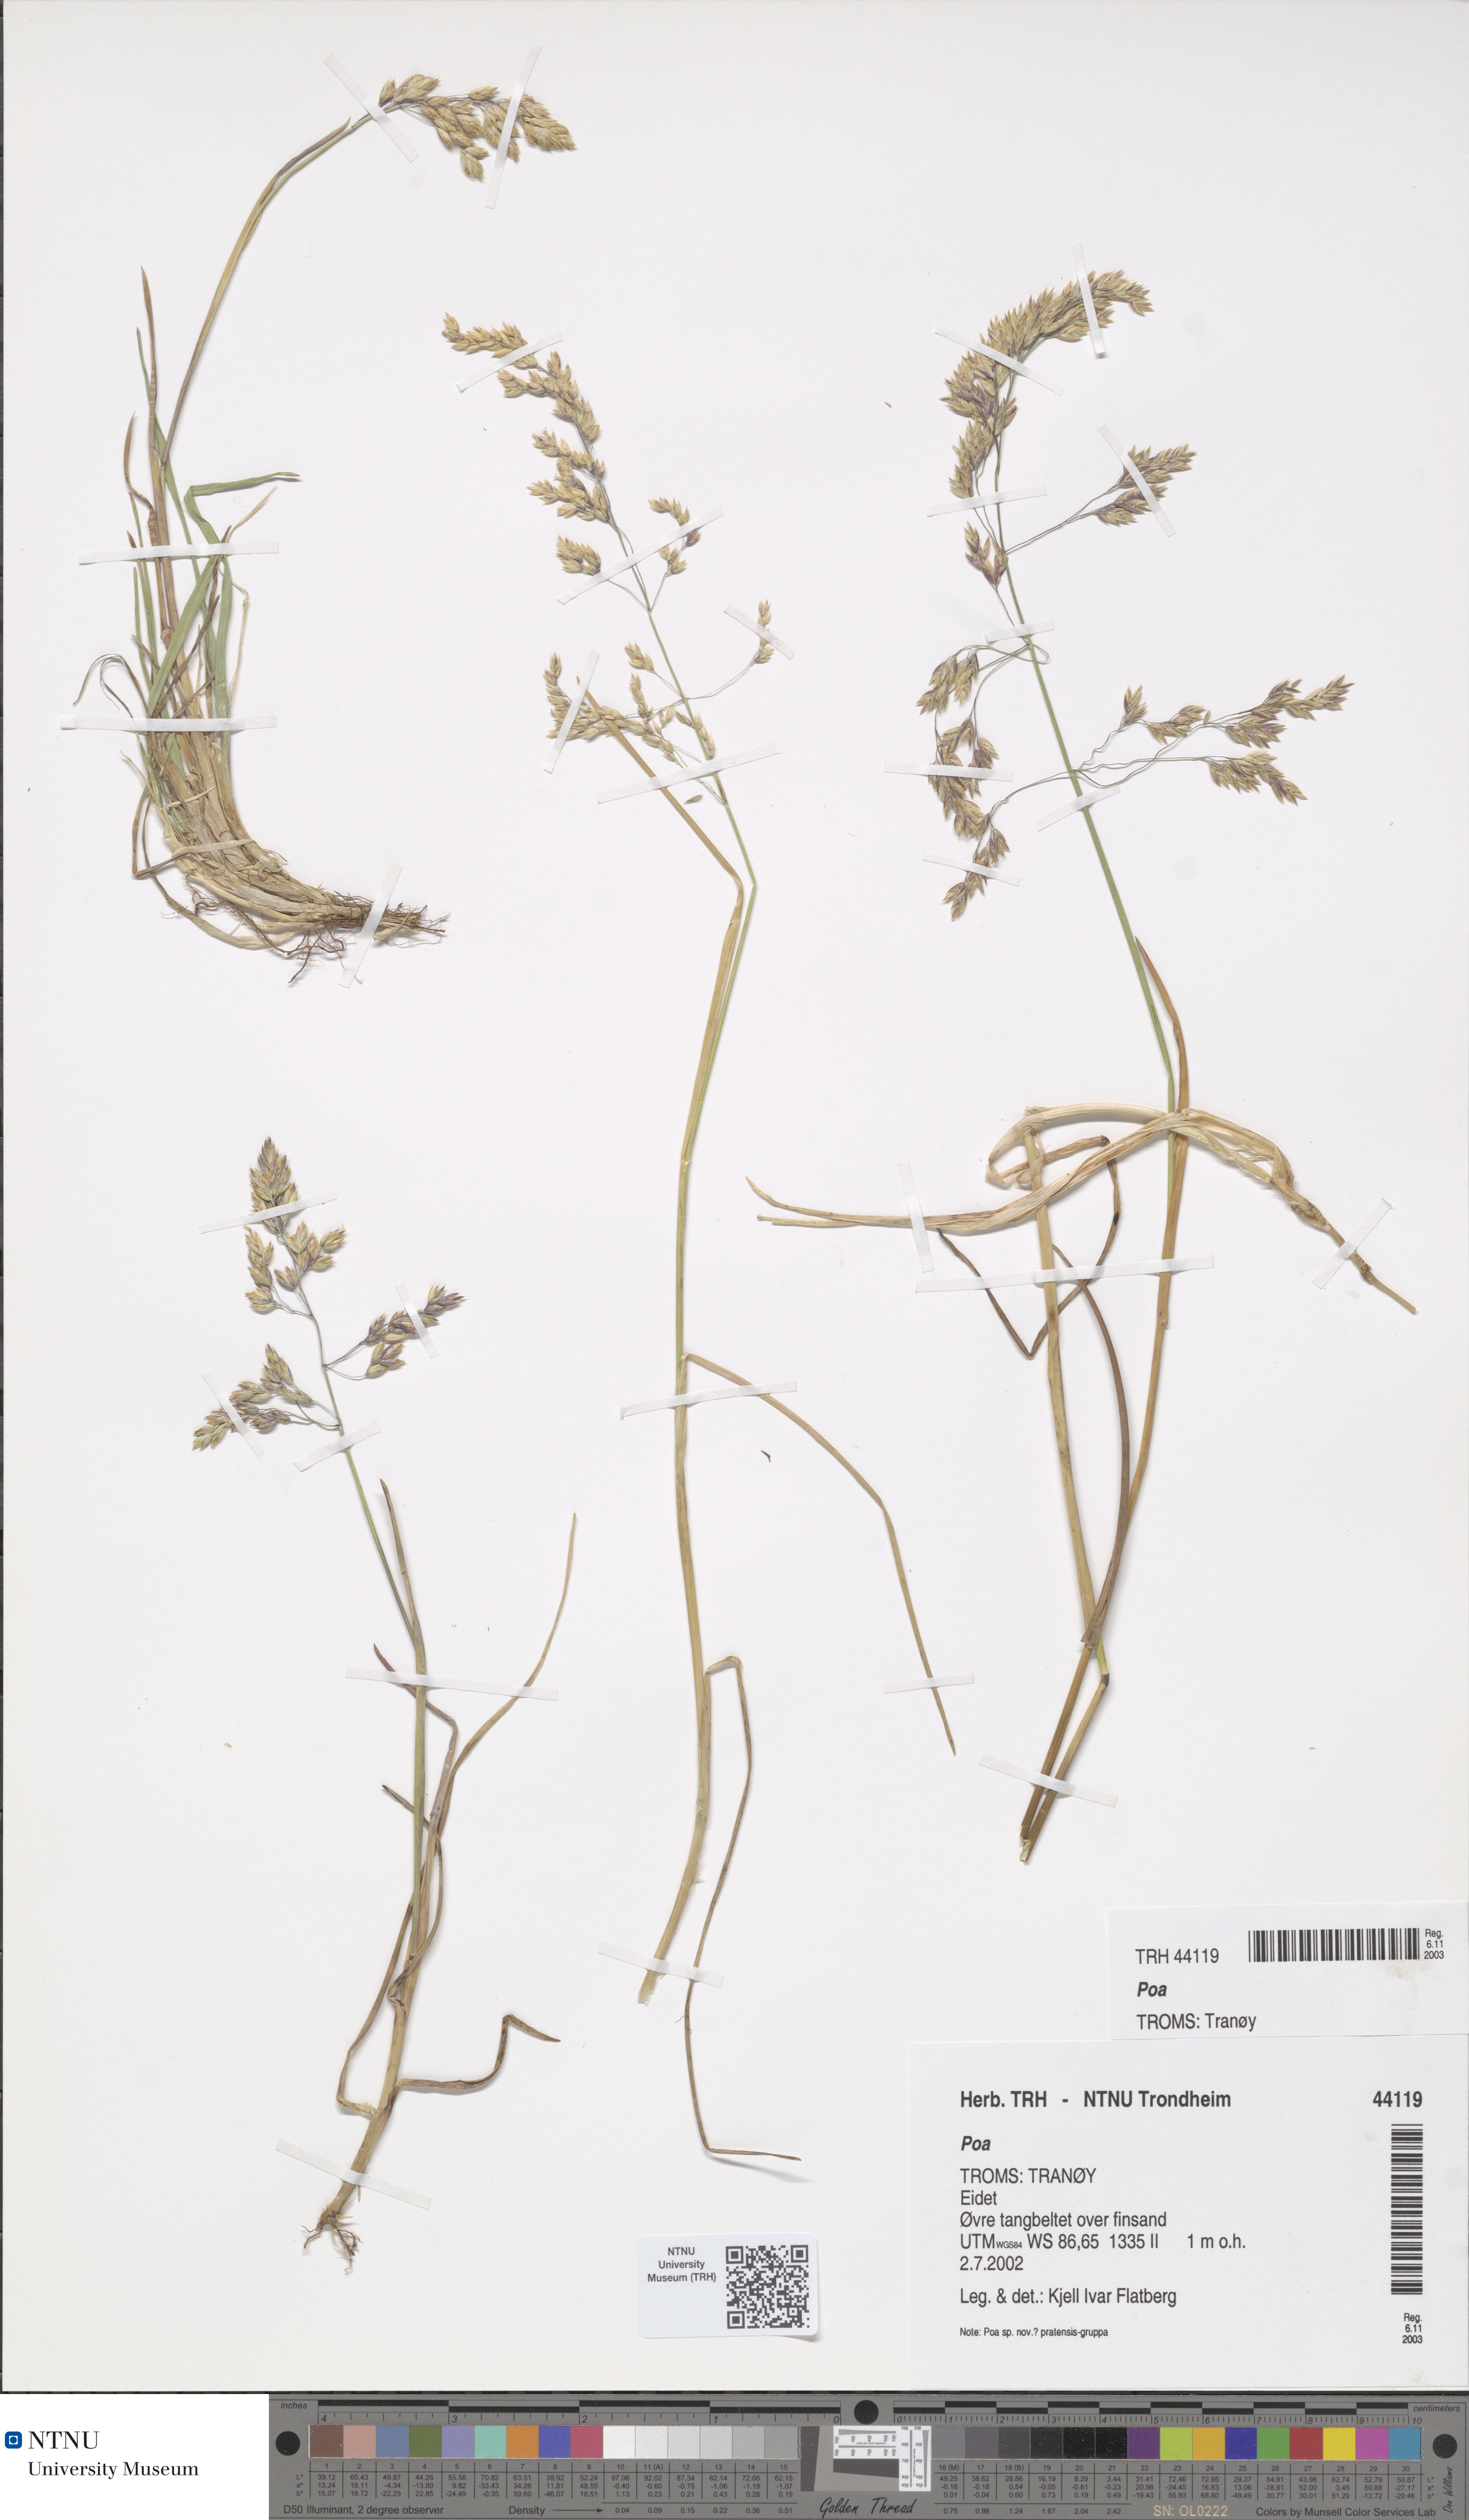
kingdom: Plantae
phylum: Tracheophyta
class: Liliopsida
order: Poales
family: Poaceae
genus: Poa
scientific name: Poa
